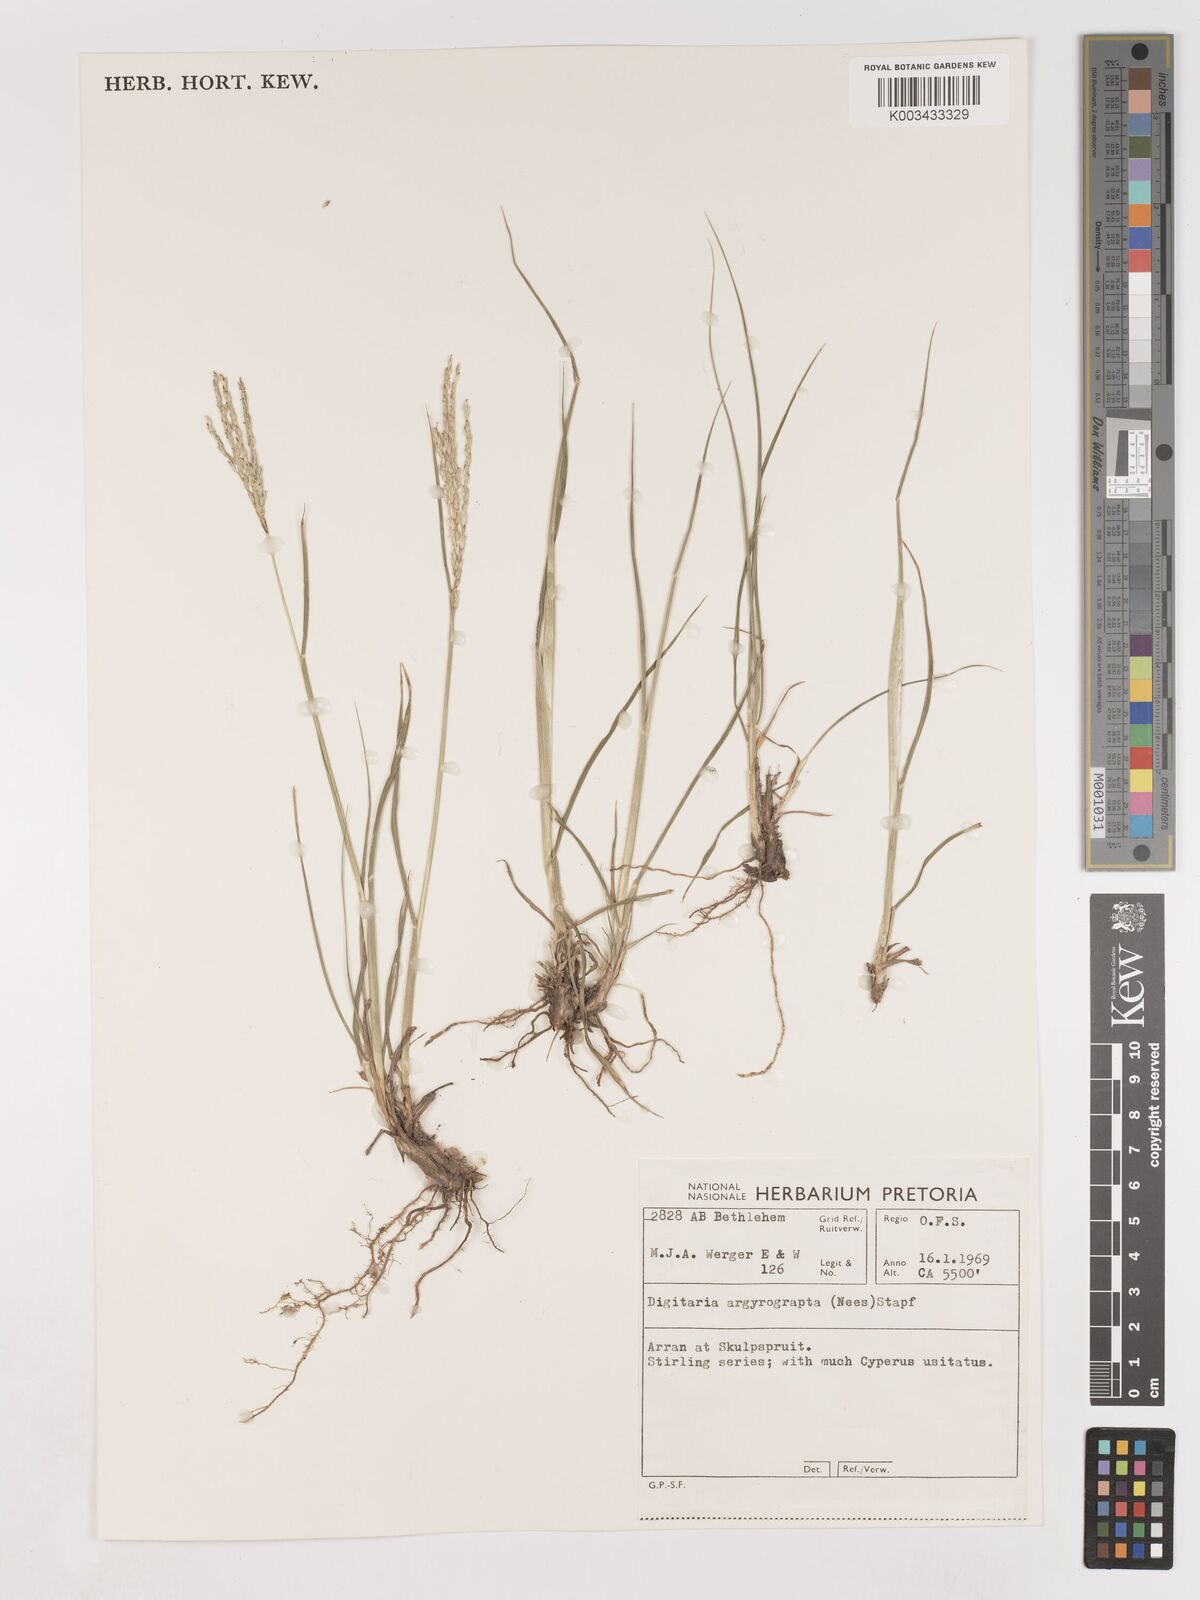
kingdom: Plantae
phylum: Tracheophyta
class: Liliopsida
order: Poales
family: Poaceae
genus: Digitaria
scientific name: Digitaria eriantha
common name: Digitgrass
